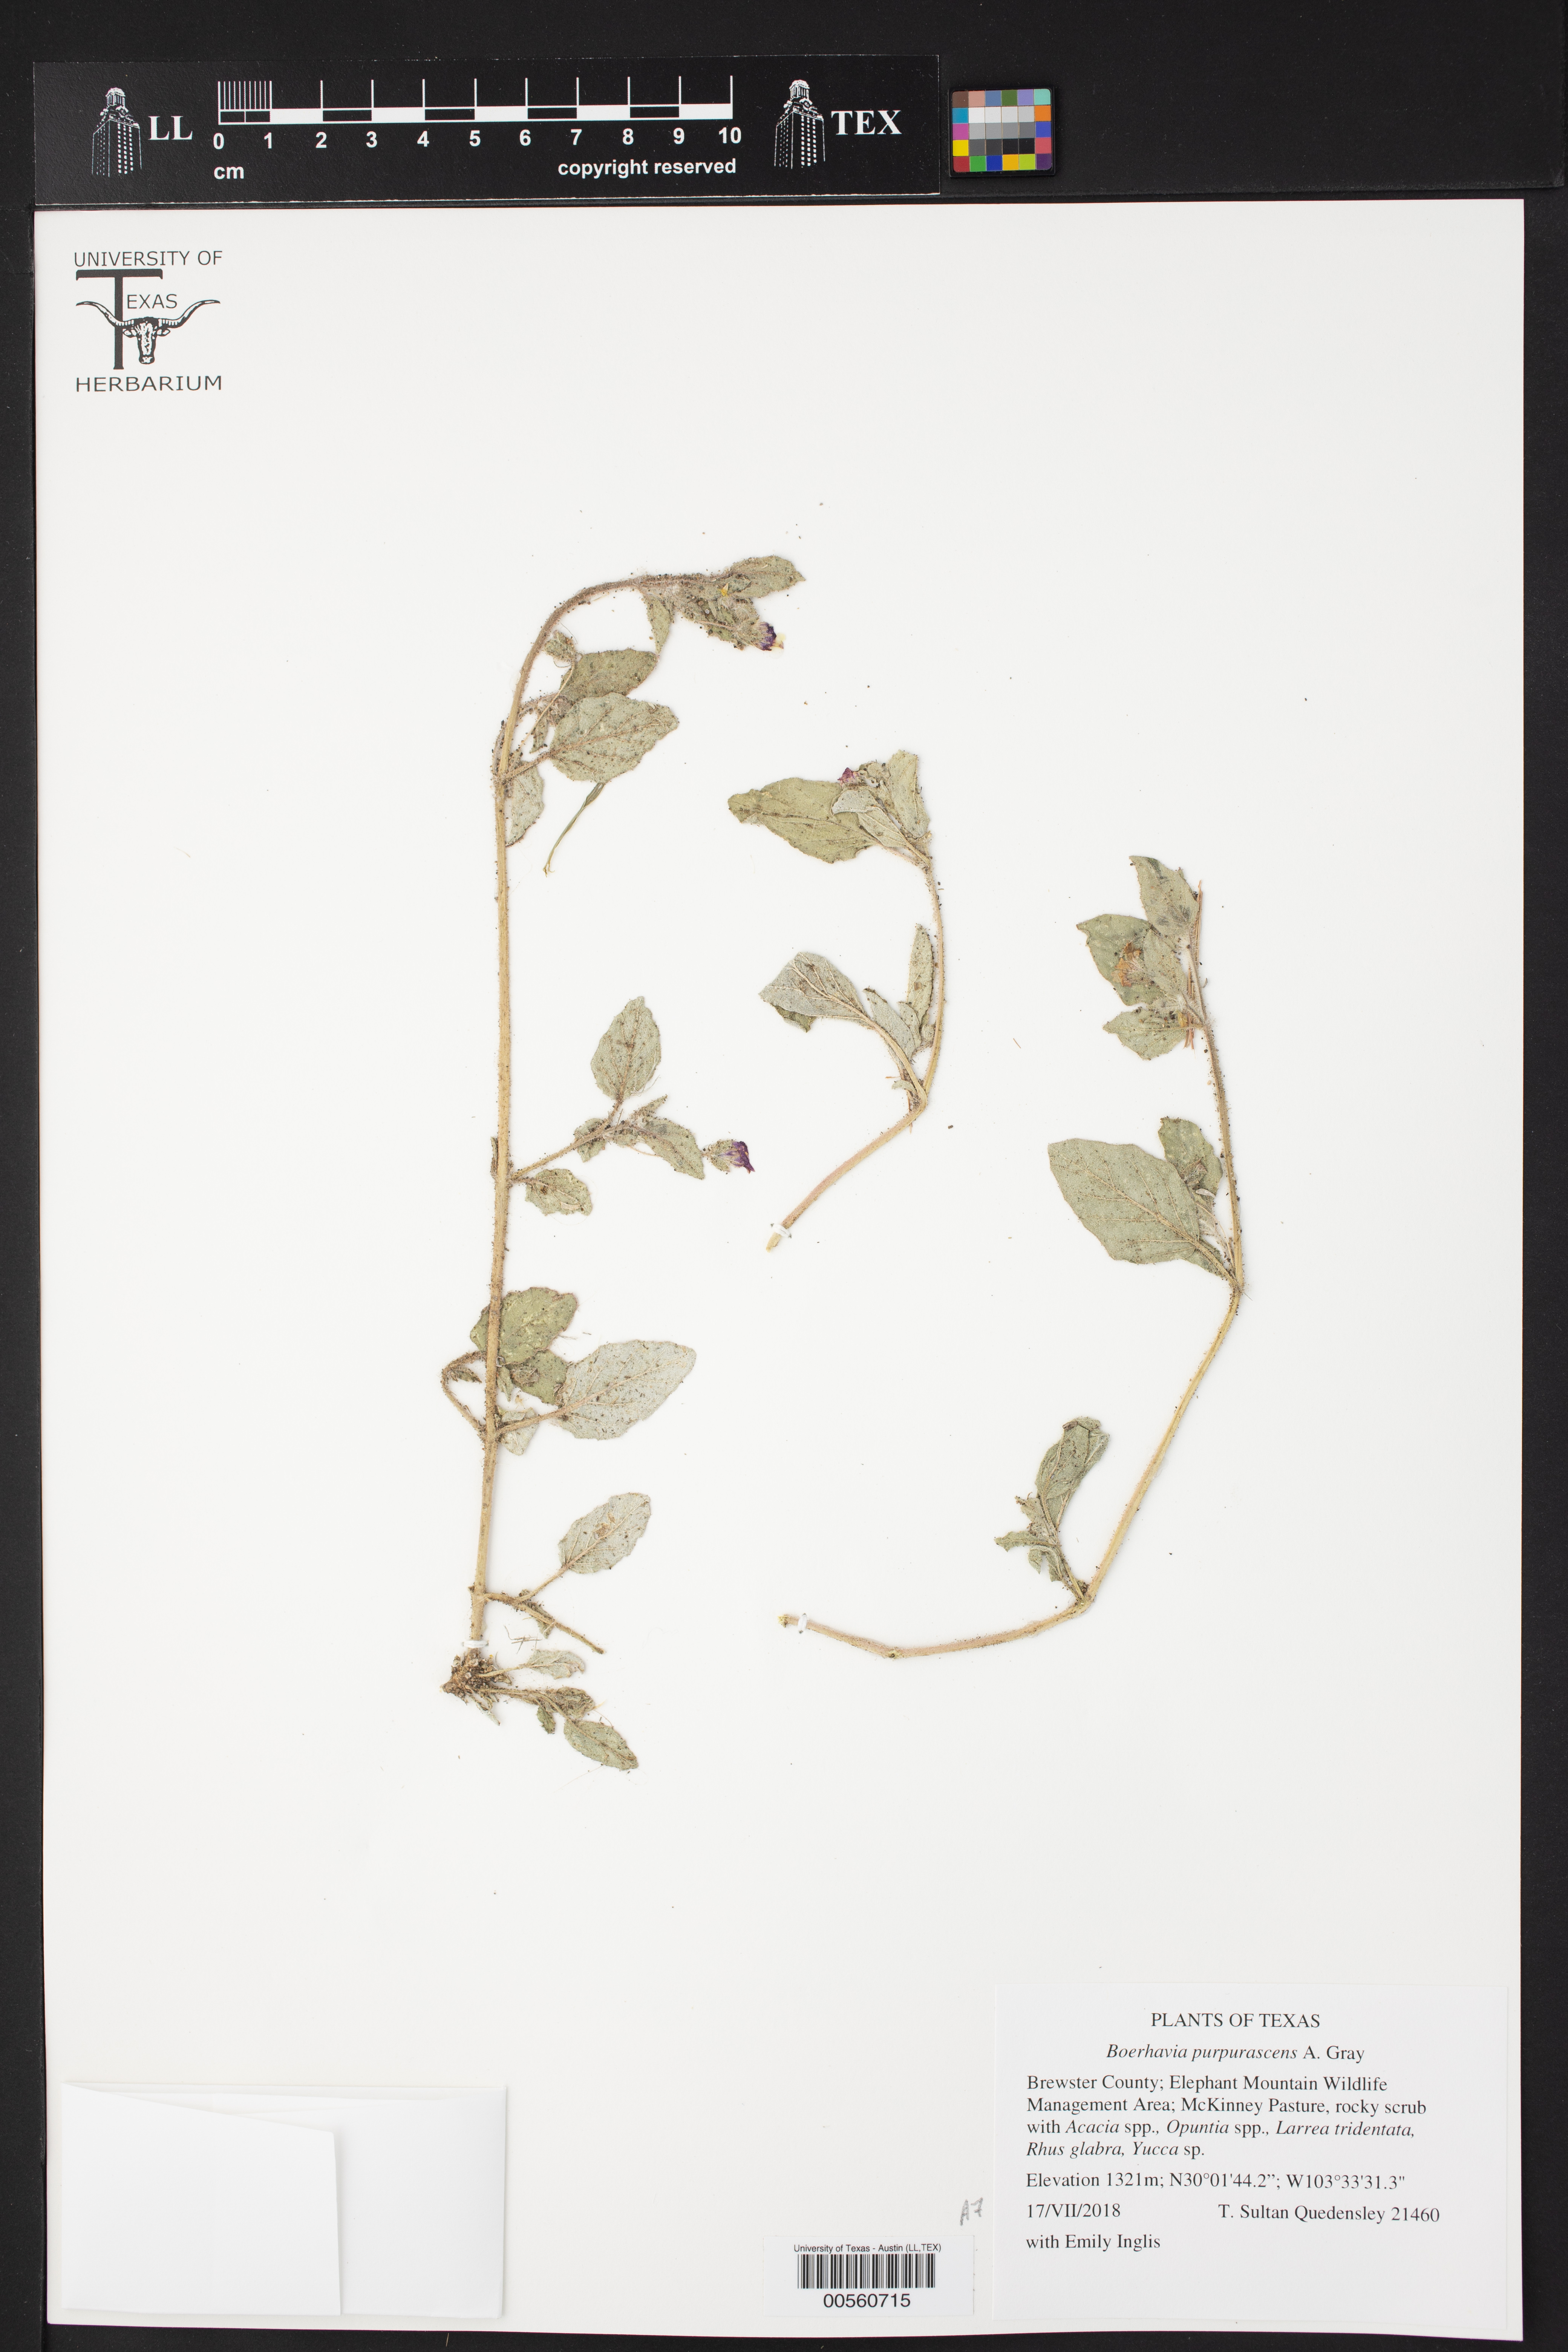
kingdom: Plantae
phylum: Tracheophyta
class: Magnoliopsida
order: Caryophyllales
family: Nyctaginaceae
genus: Allionia
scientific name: Allionia incarnata
